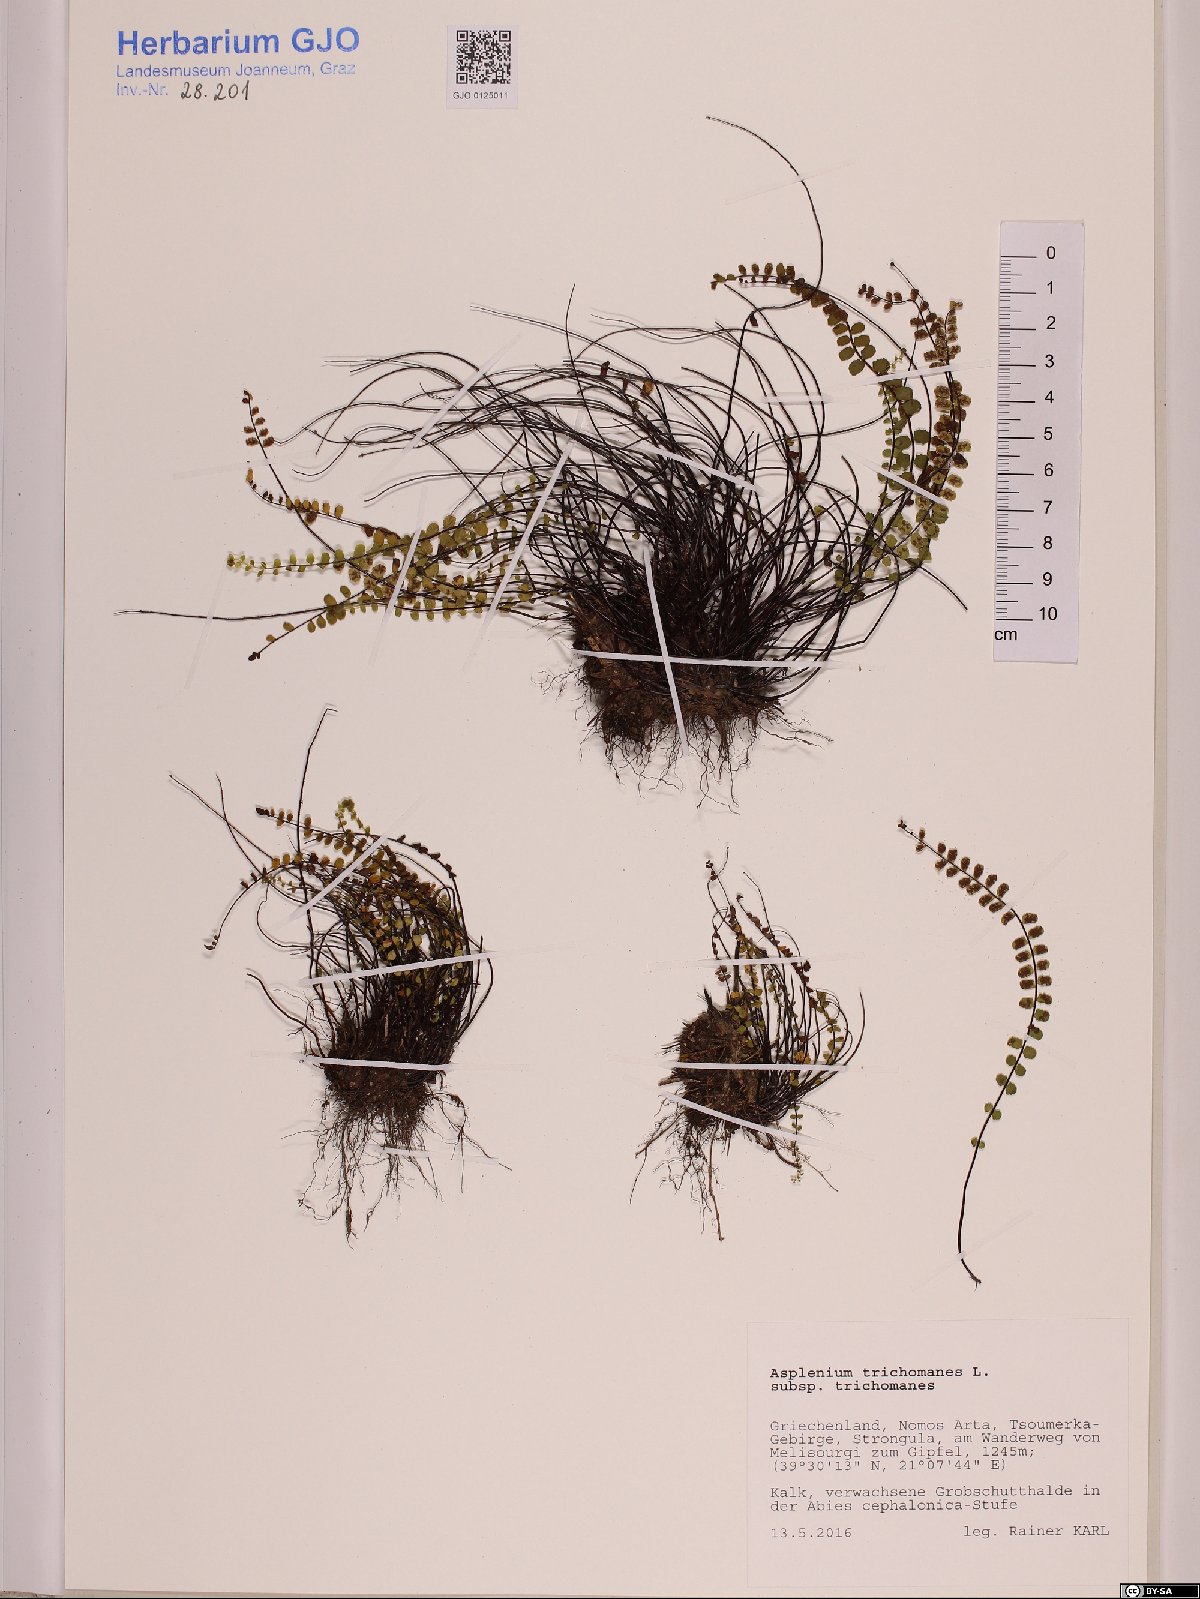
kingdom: Plantae
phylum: Tracheophyta
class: Polypodiopsida
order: Polypodiales
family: Aspleniaceae
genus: Asplenium
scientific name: Asplenium trichomanes
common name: Maidenhair spleenwort
